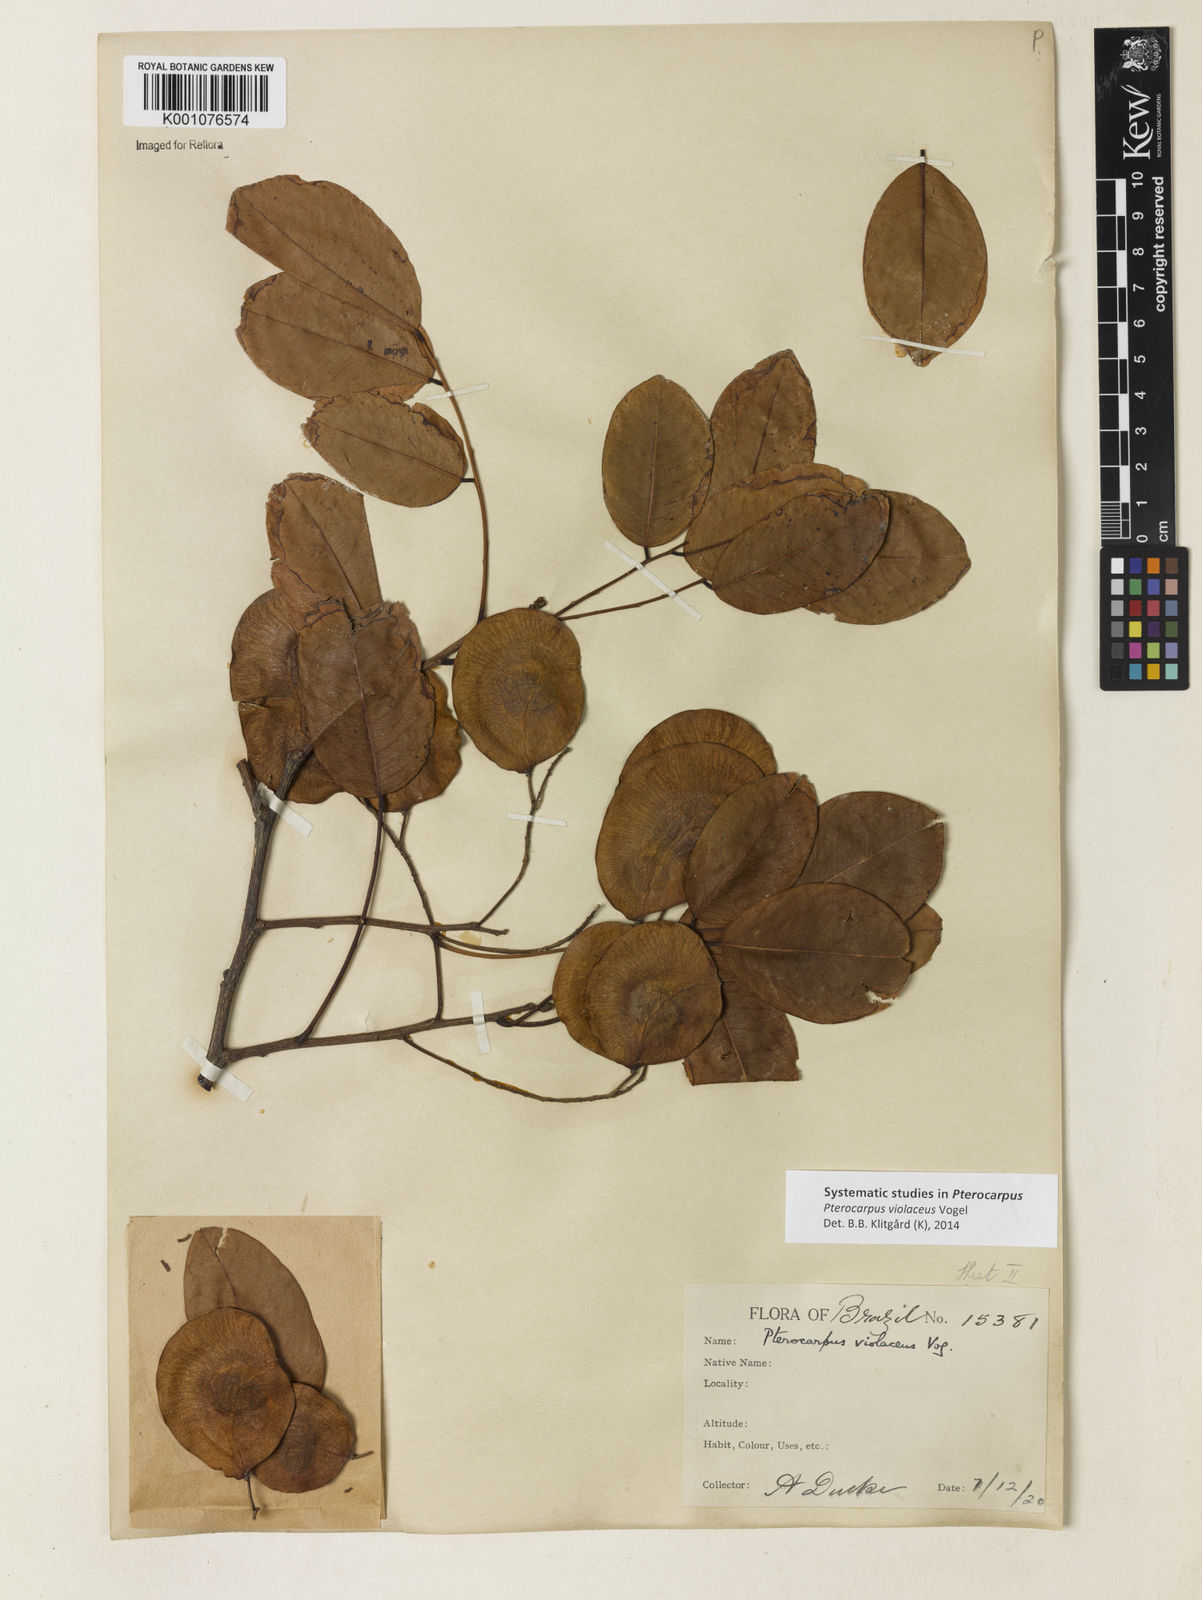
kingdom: Plantae
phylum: Tracheophyta
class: Magnoliopsida
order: Fabales
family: Fabaceae
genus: Pterocarpus
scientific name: Pterocarpus rohrii
